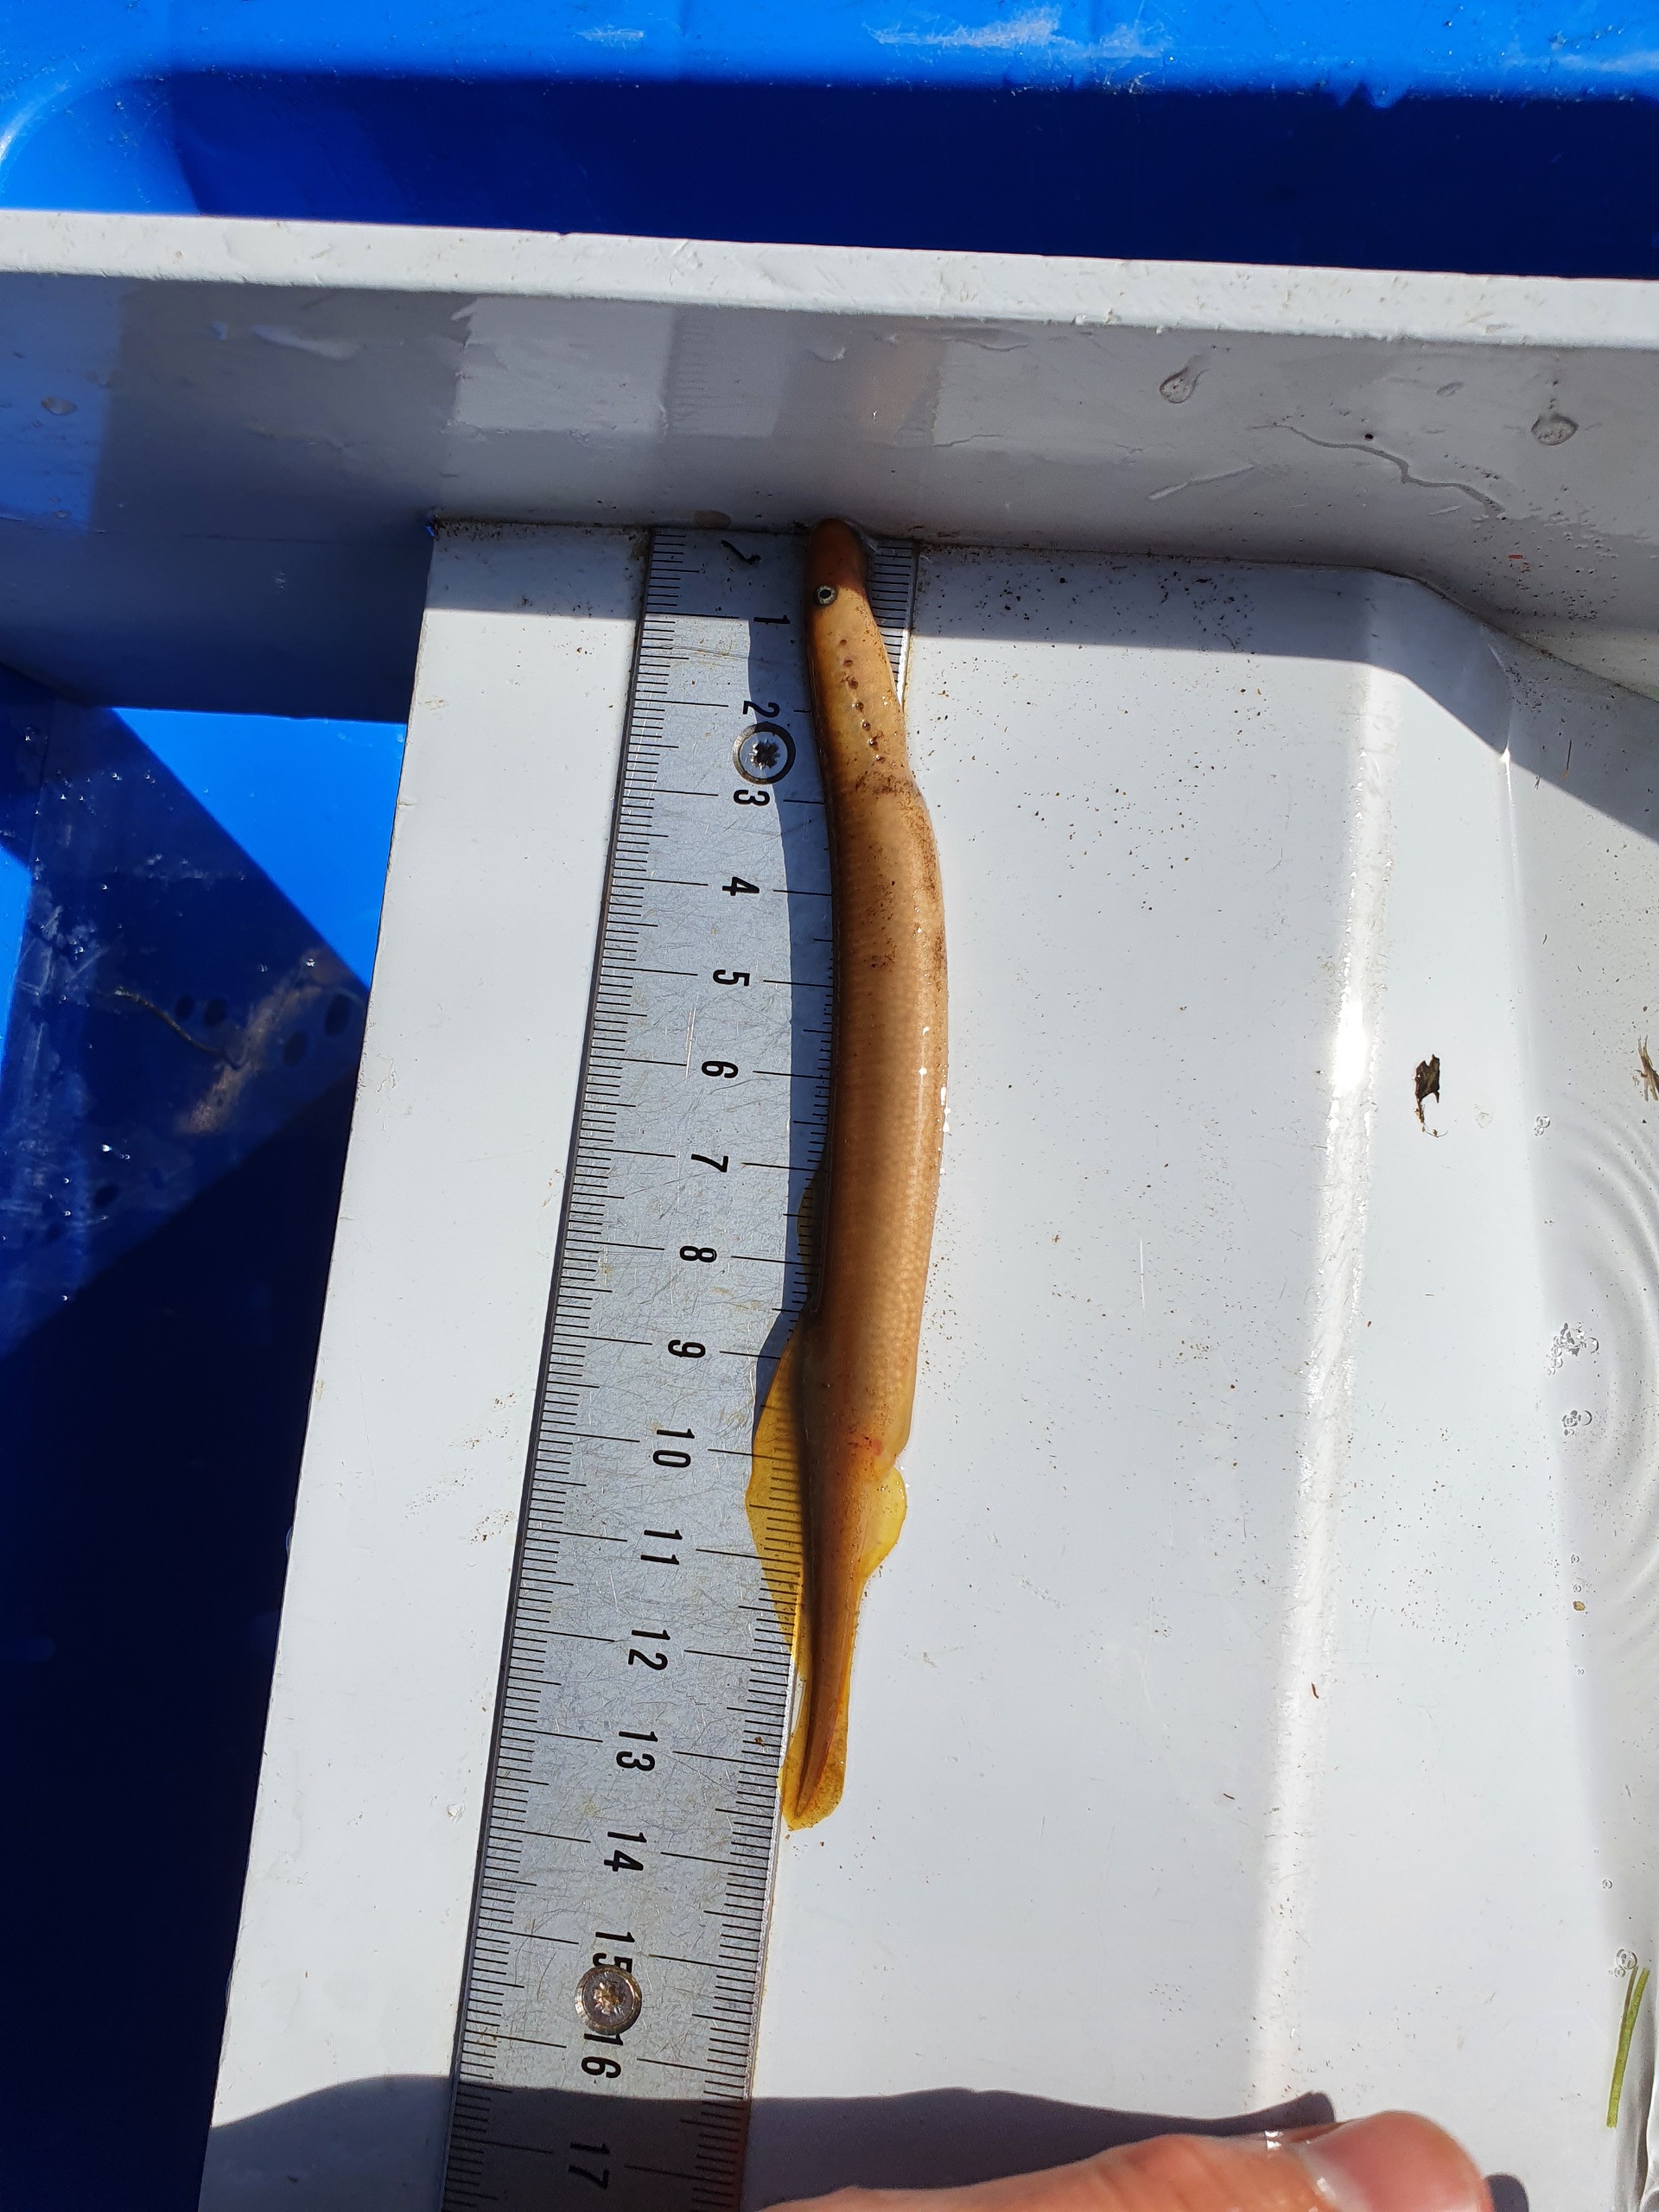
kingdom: Animalia
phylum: Chordata
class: Petromyzonti
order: Petromyzontiformes
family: Petromyzontidae
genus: Lampetra
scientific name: Lampetra planeri
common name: Bæklampret
